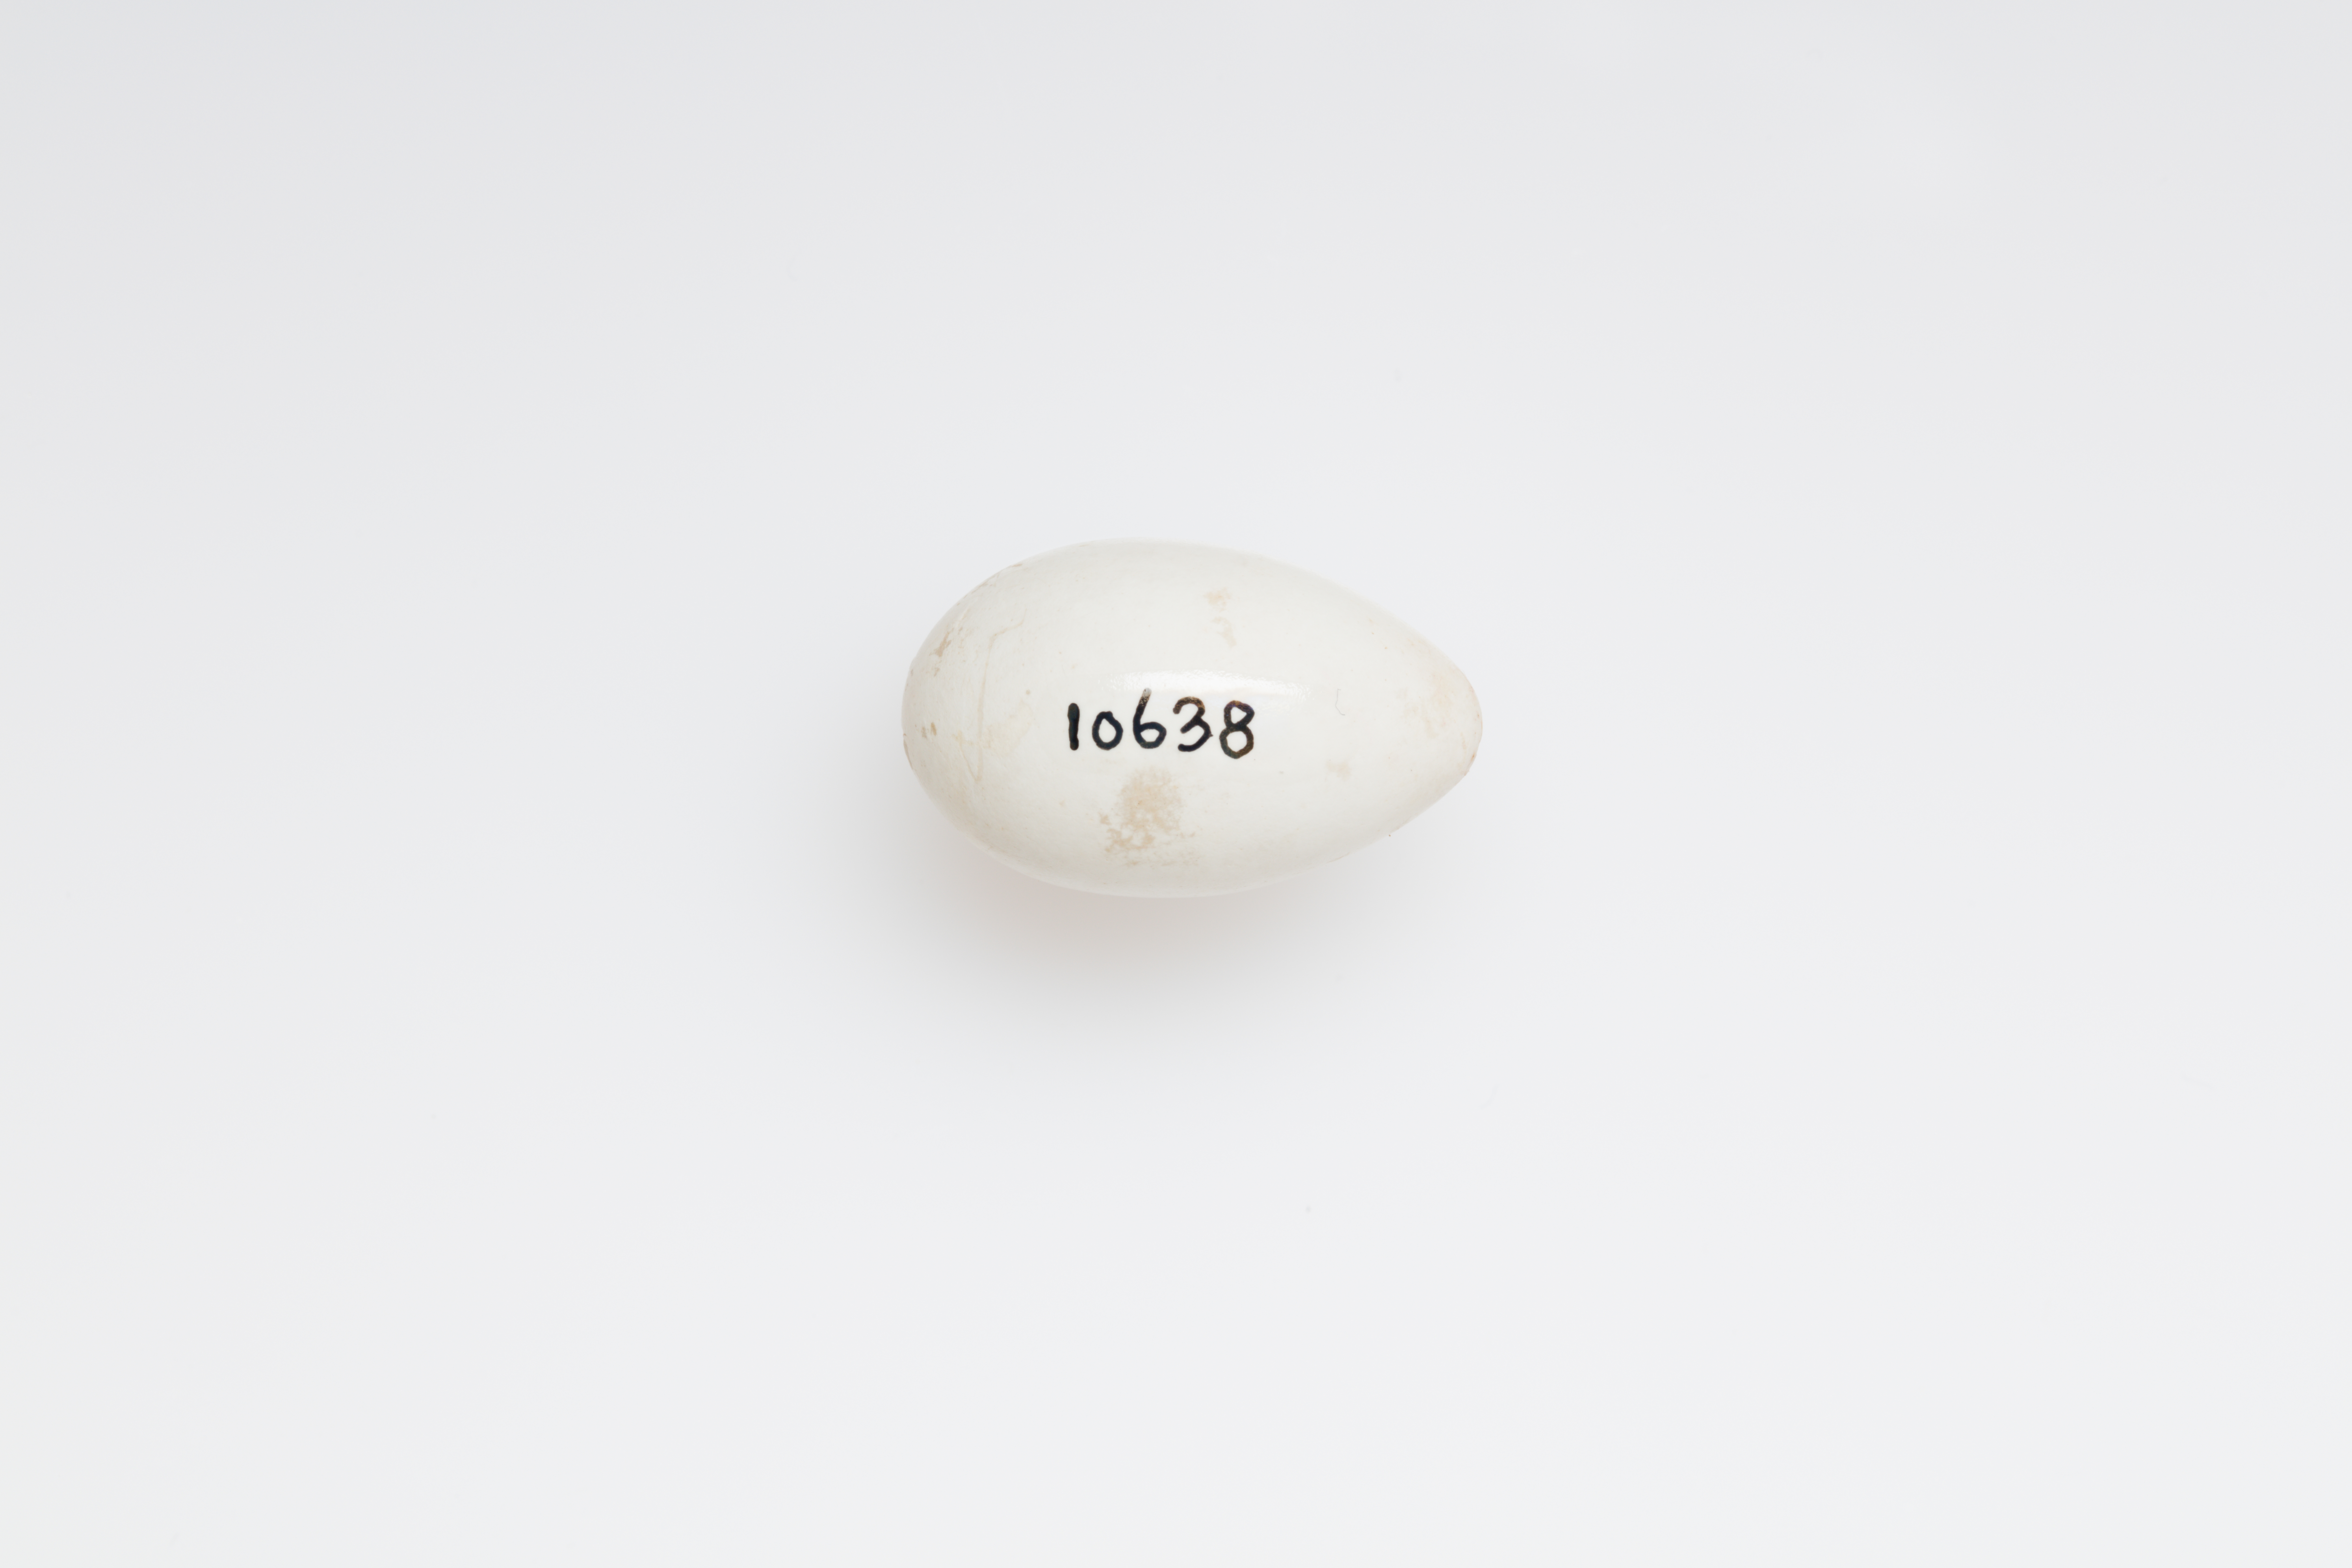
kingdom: Animalia
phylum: Chordata
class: Aves
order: Passeriformes
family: Hirundinidae
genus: Delichon
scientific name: Delichon urbicum
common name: Common house martin
